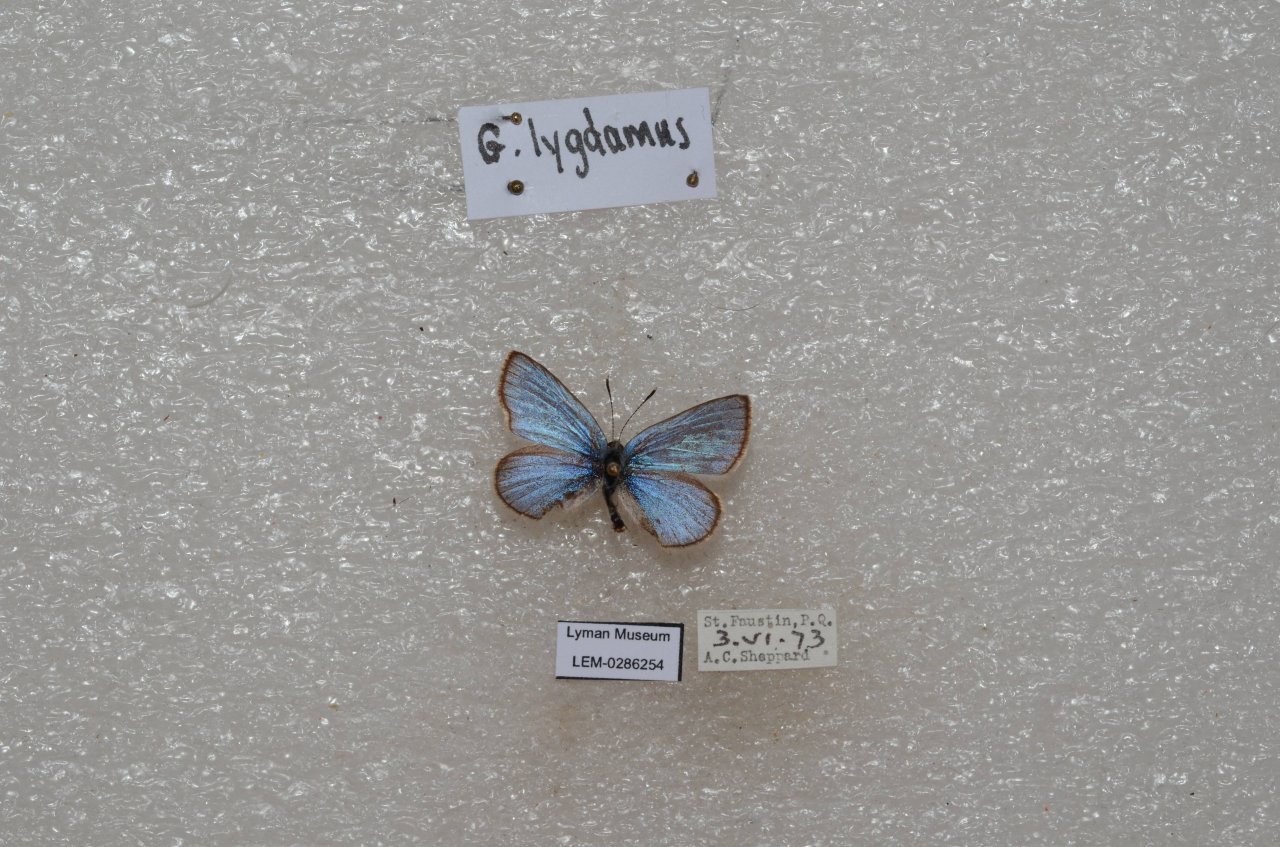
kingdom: Animalia
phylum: Arthropoda
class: Insecta
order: Lepidoptera
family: Lycaenidae
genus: Glaucopsyche
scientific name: Glaucopsyche lygdamus
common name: Silvery Blue
